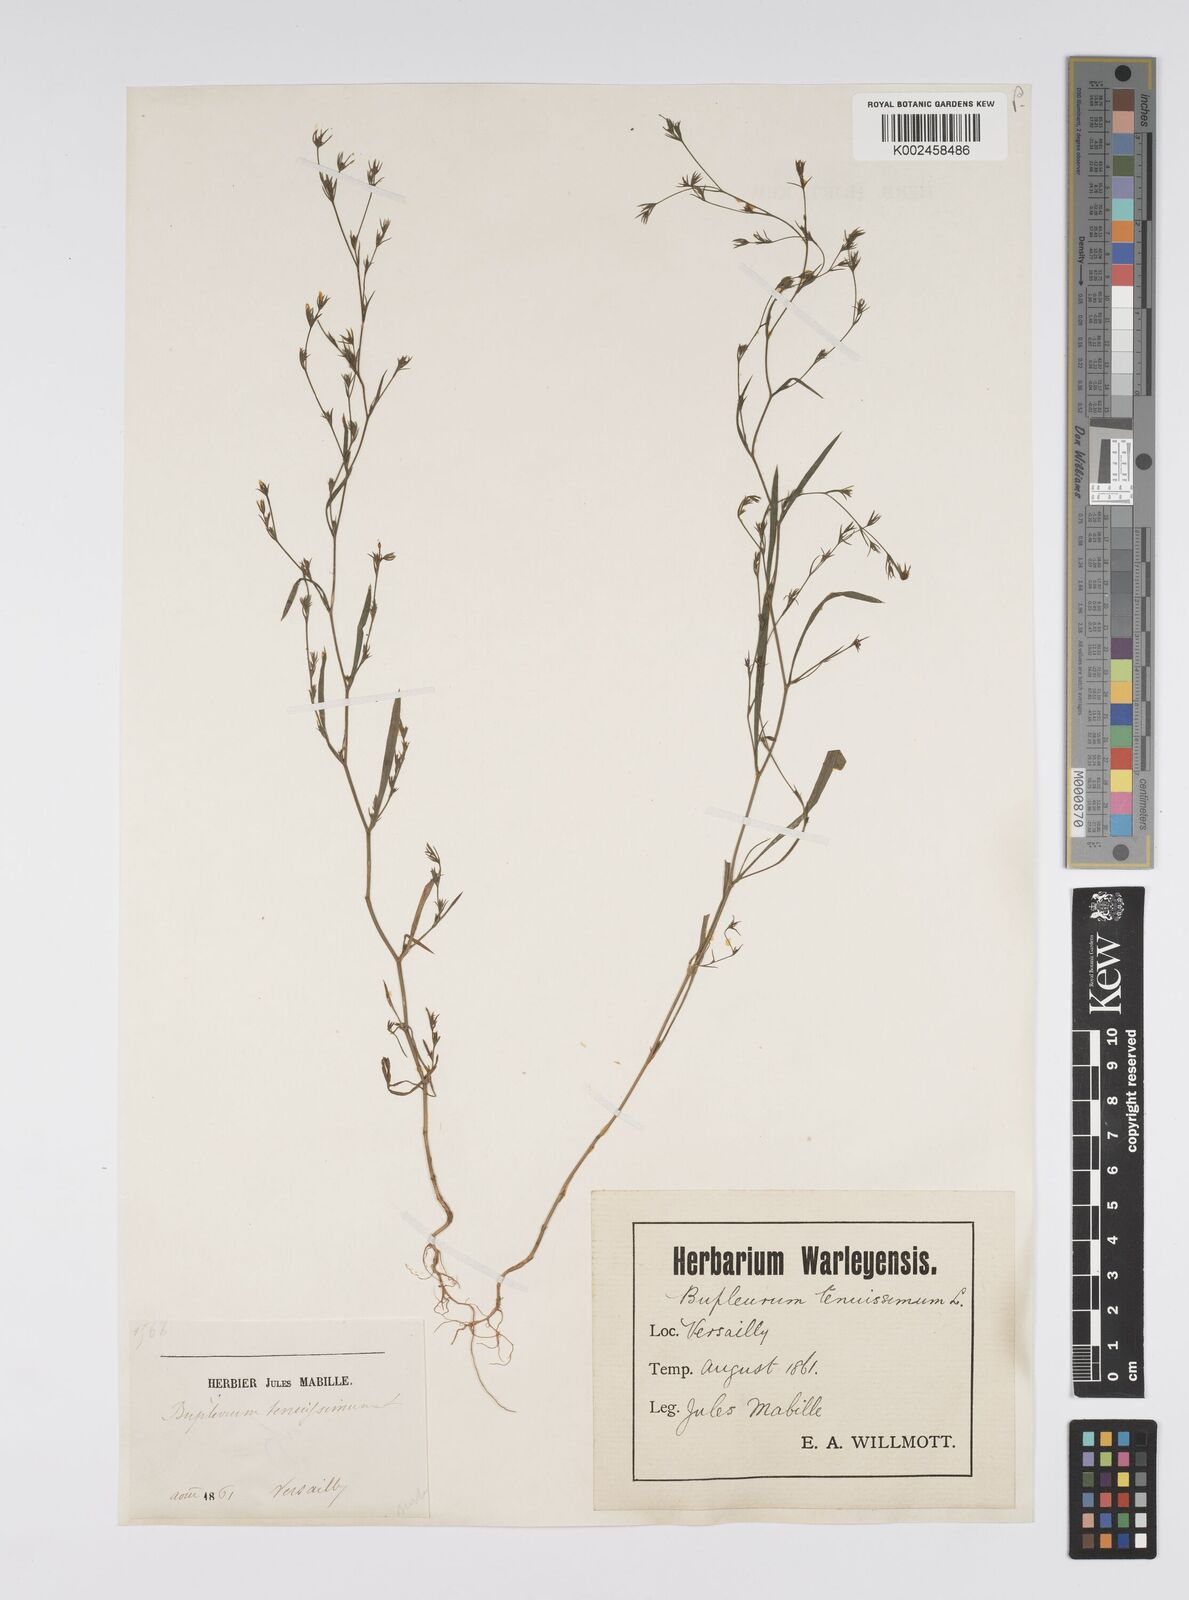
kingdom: Plantae
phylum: Tracheophyta
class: Magnoliopsida
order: Apiales
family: Apiaceae
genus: Bupleurum
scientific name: Bupleurum tenuissimum
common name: Slender hare's-ear
